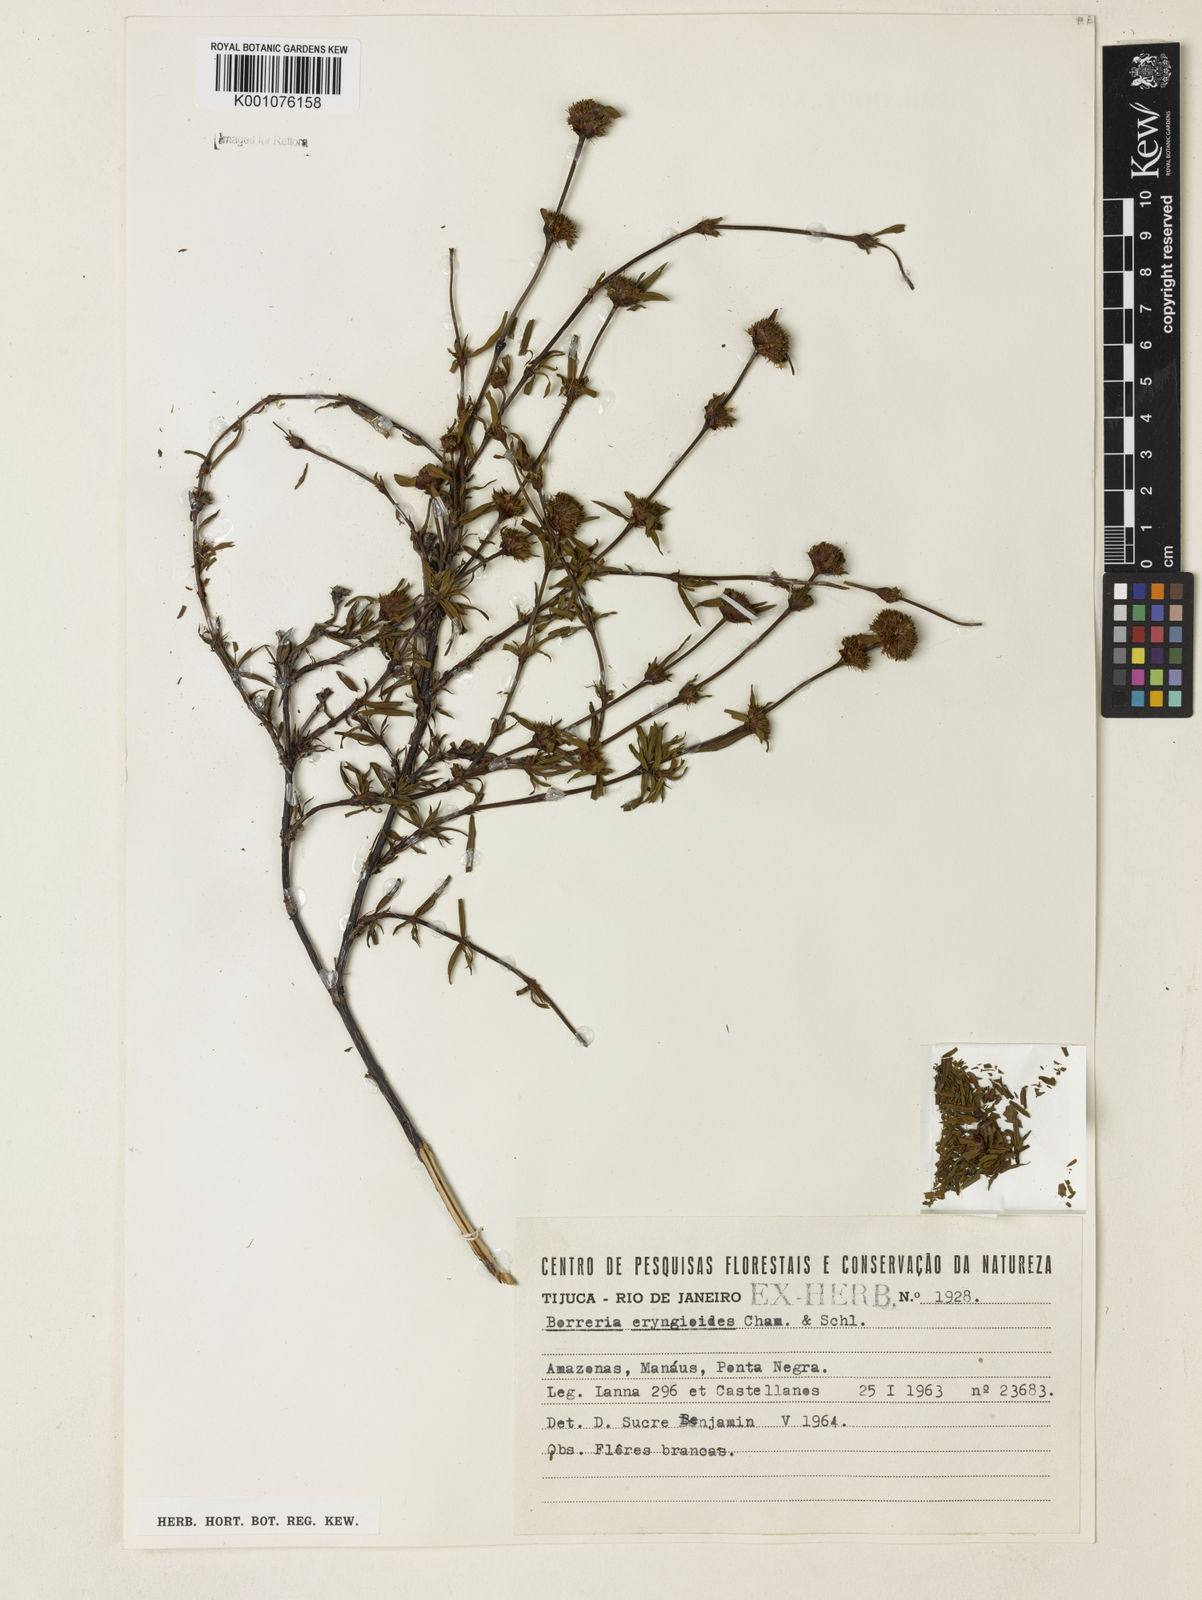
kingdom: Plantae
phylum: Tracheophyta
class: Magnoliopsida
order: Gentianales
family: Rubiaceae
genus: Spermacoce
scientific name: Spermacoce eryngioides
